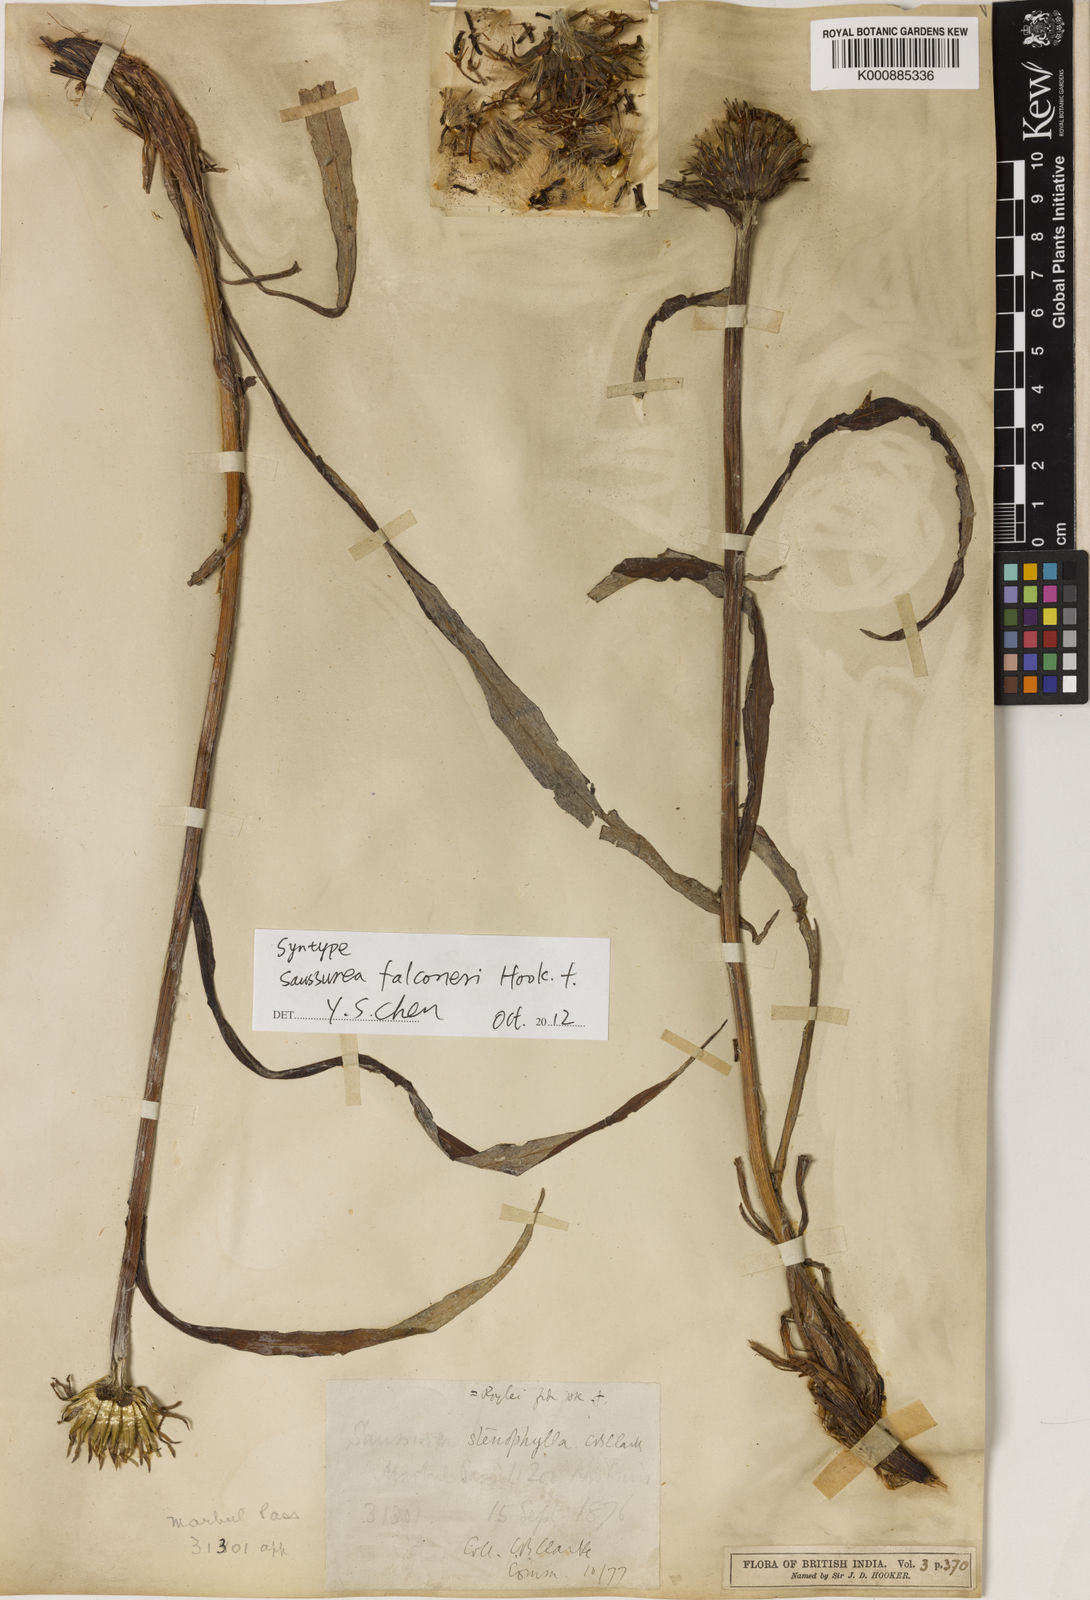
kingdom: Plantae
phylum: Tracheophyta
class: Magnoliopsida
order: Asterales
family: Asteraceae
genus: Saussurea
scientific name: Saussurea devendrae
